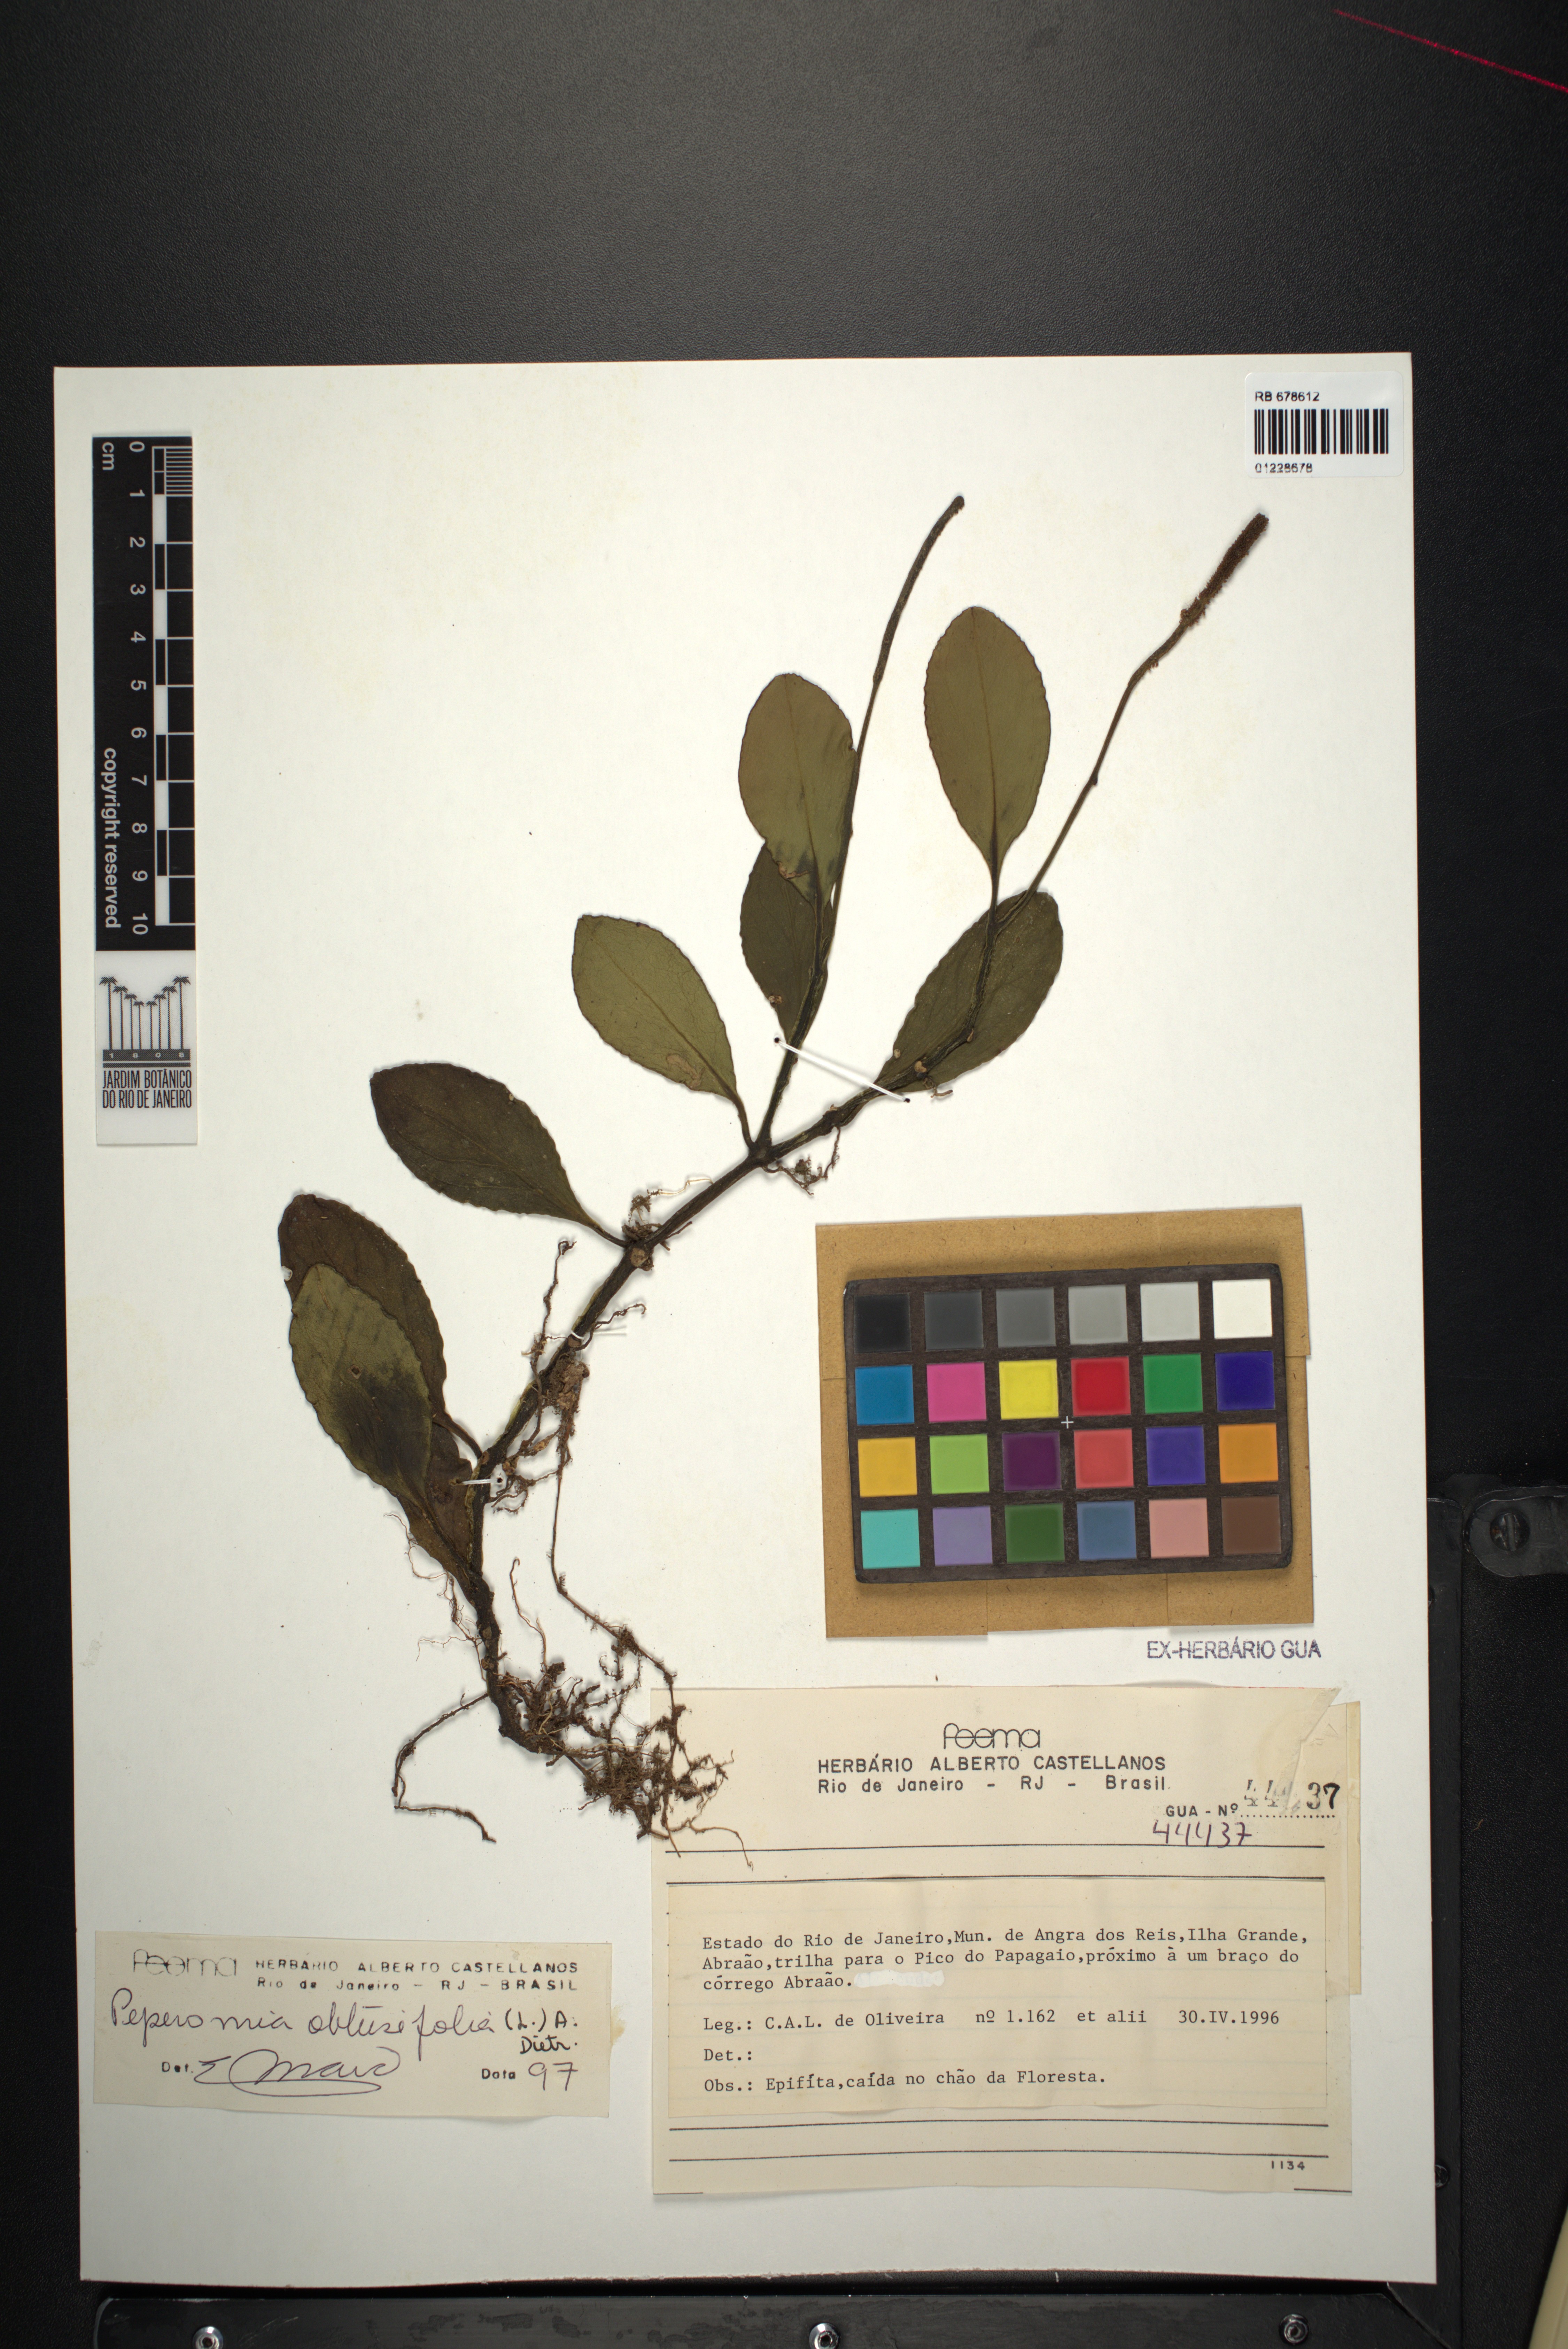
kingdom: Plantae
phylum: Tracheophyta
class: Magnoliopsida
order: Piperales
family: Piperaceae
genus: Peperomia
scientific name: Peperomia obtusifolia
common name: Baby rubberplant
